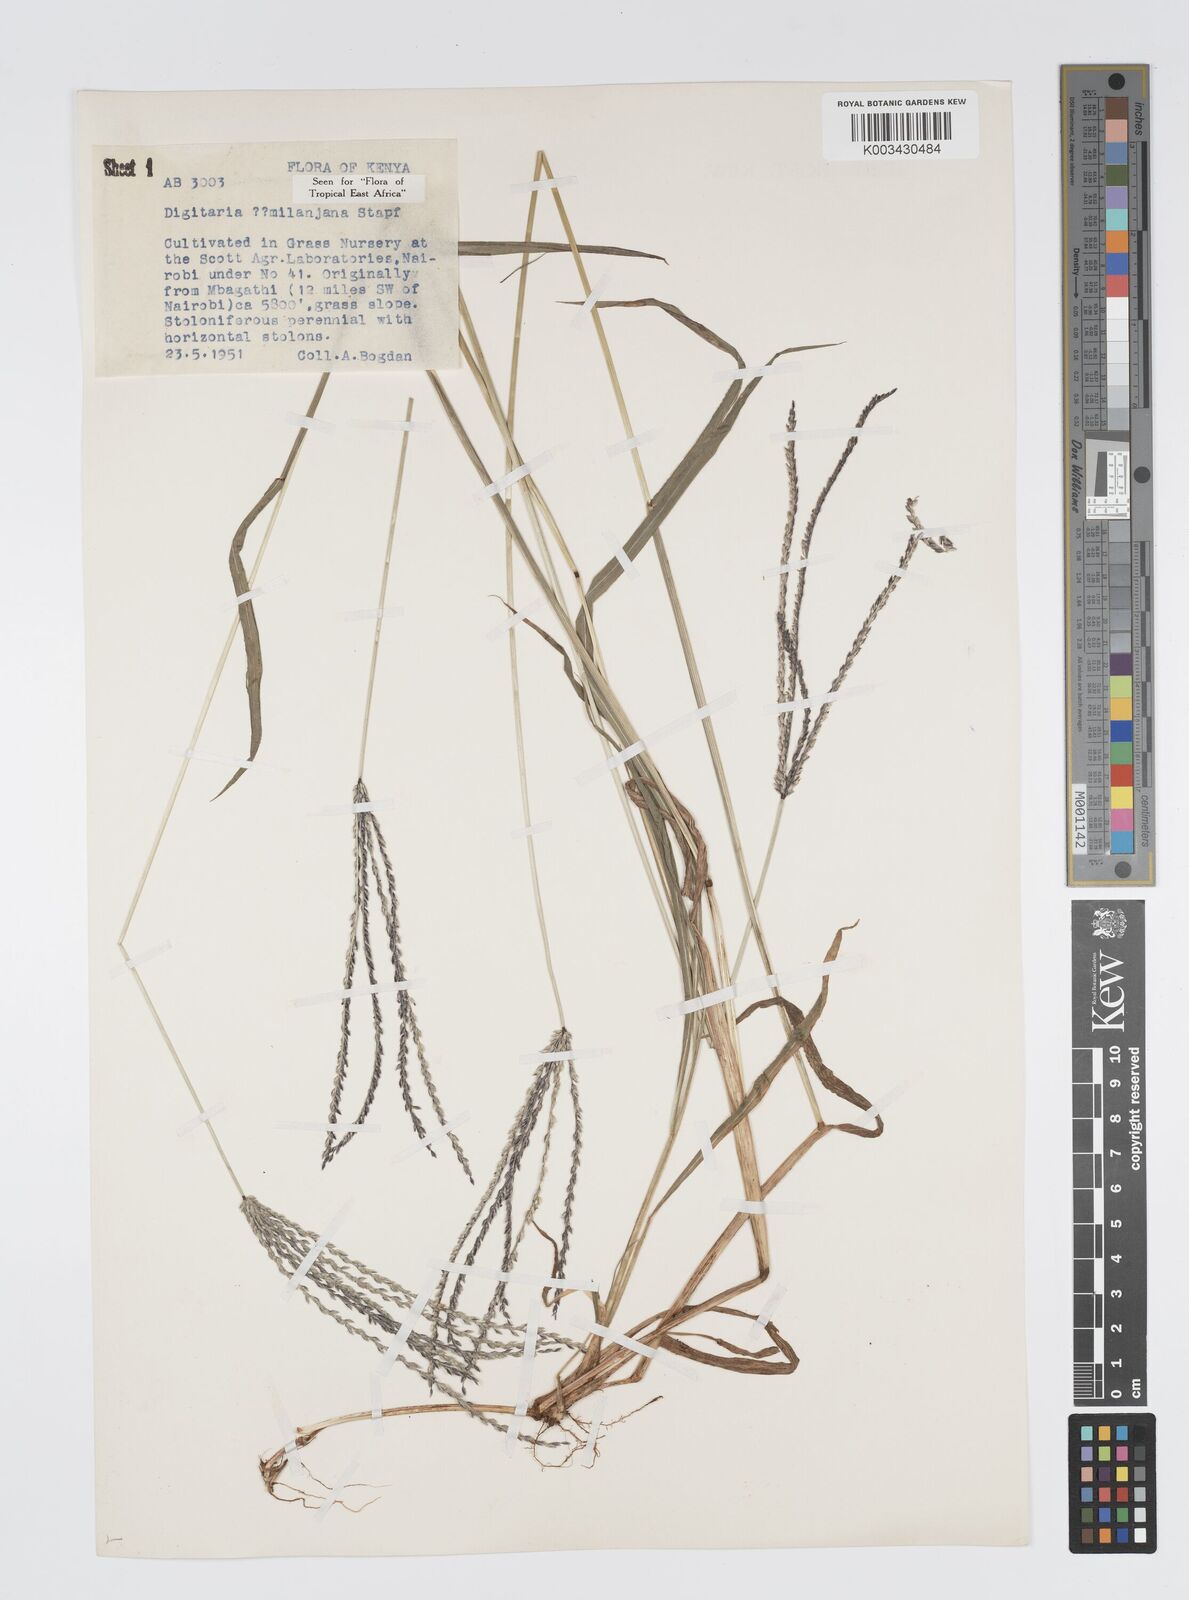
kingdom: Plantae
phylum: Tracheophyta
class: Liliopsida
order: Poales
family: Poaceae
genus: Digitaria
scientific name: Digitaria milanjiana
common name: Madagascar crabgrass
